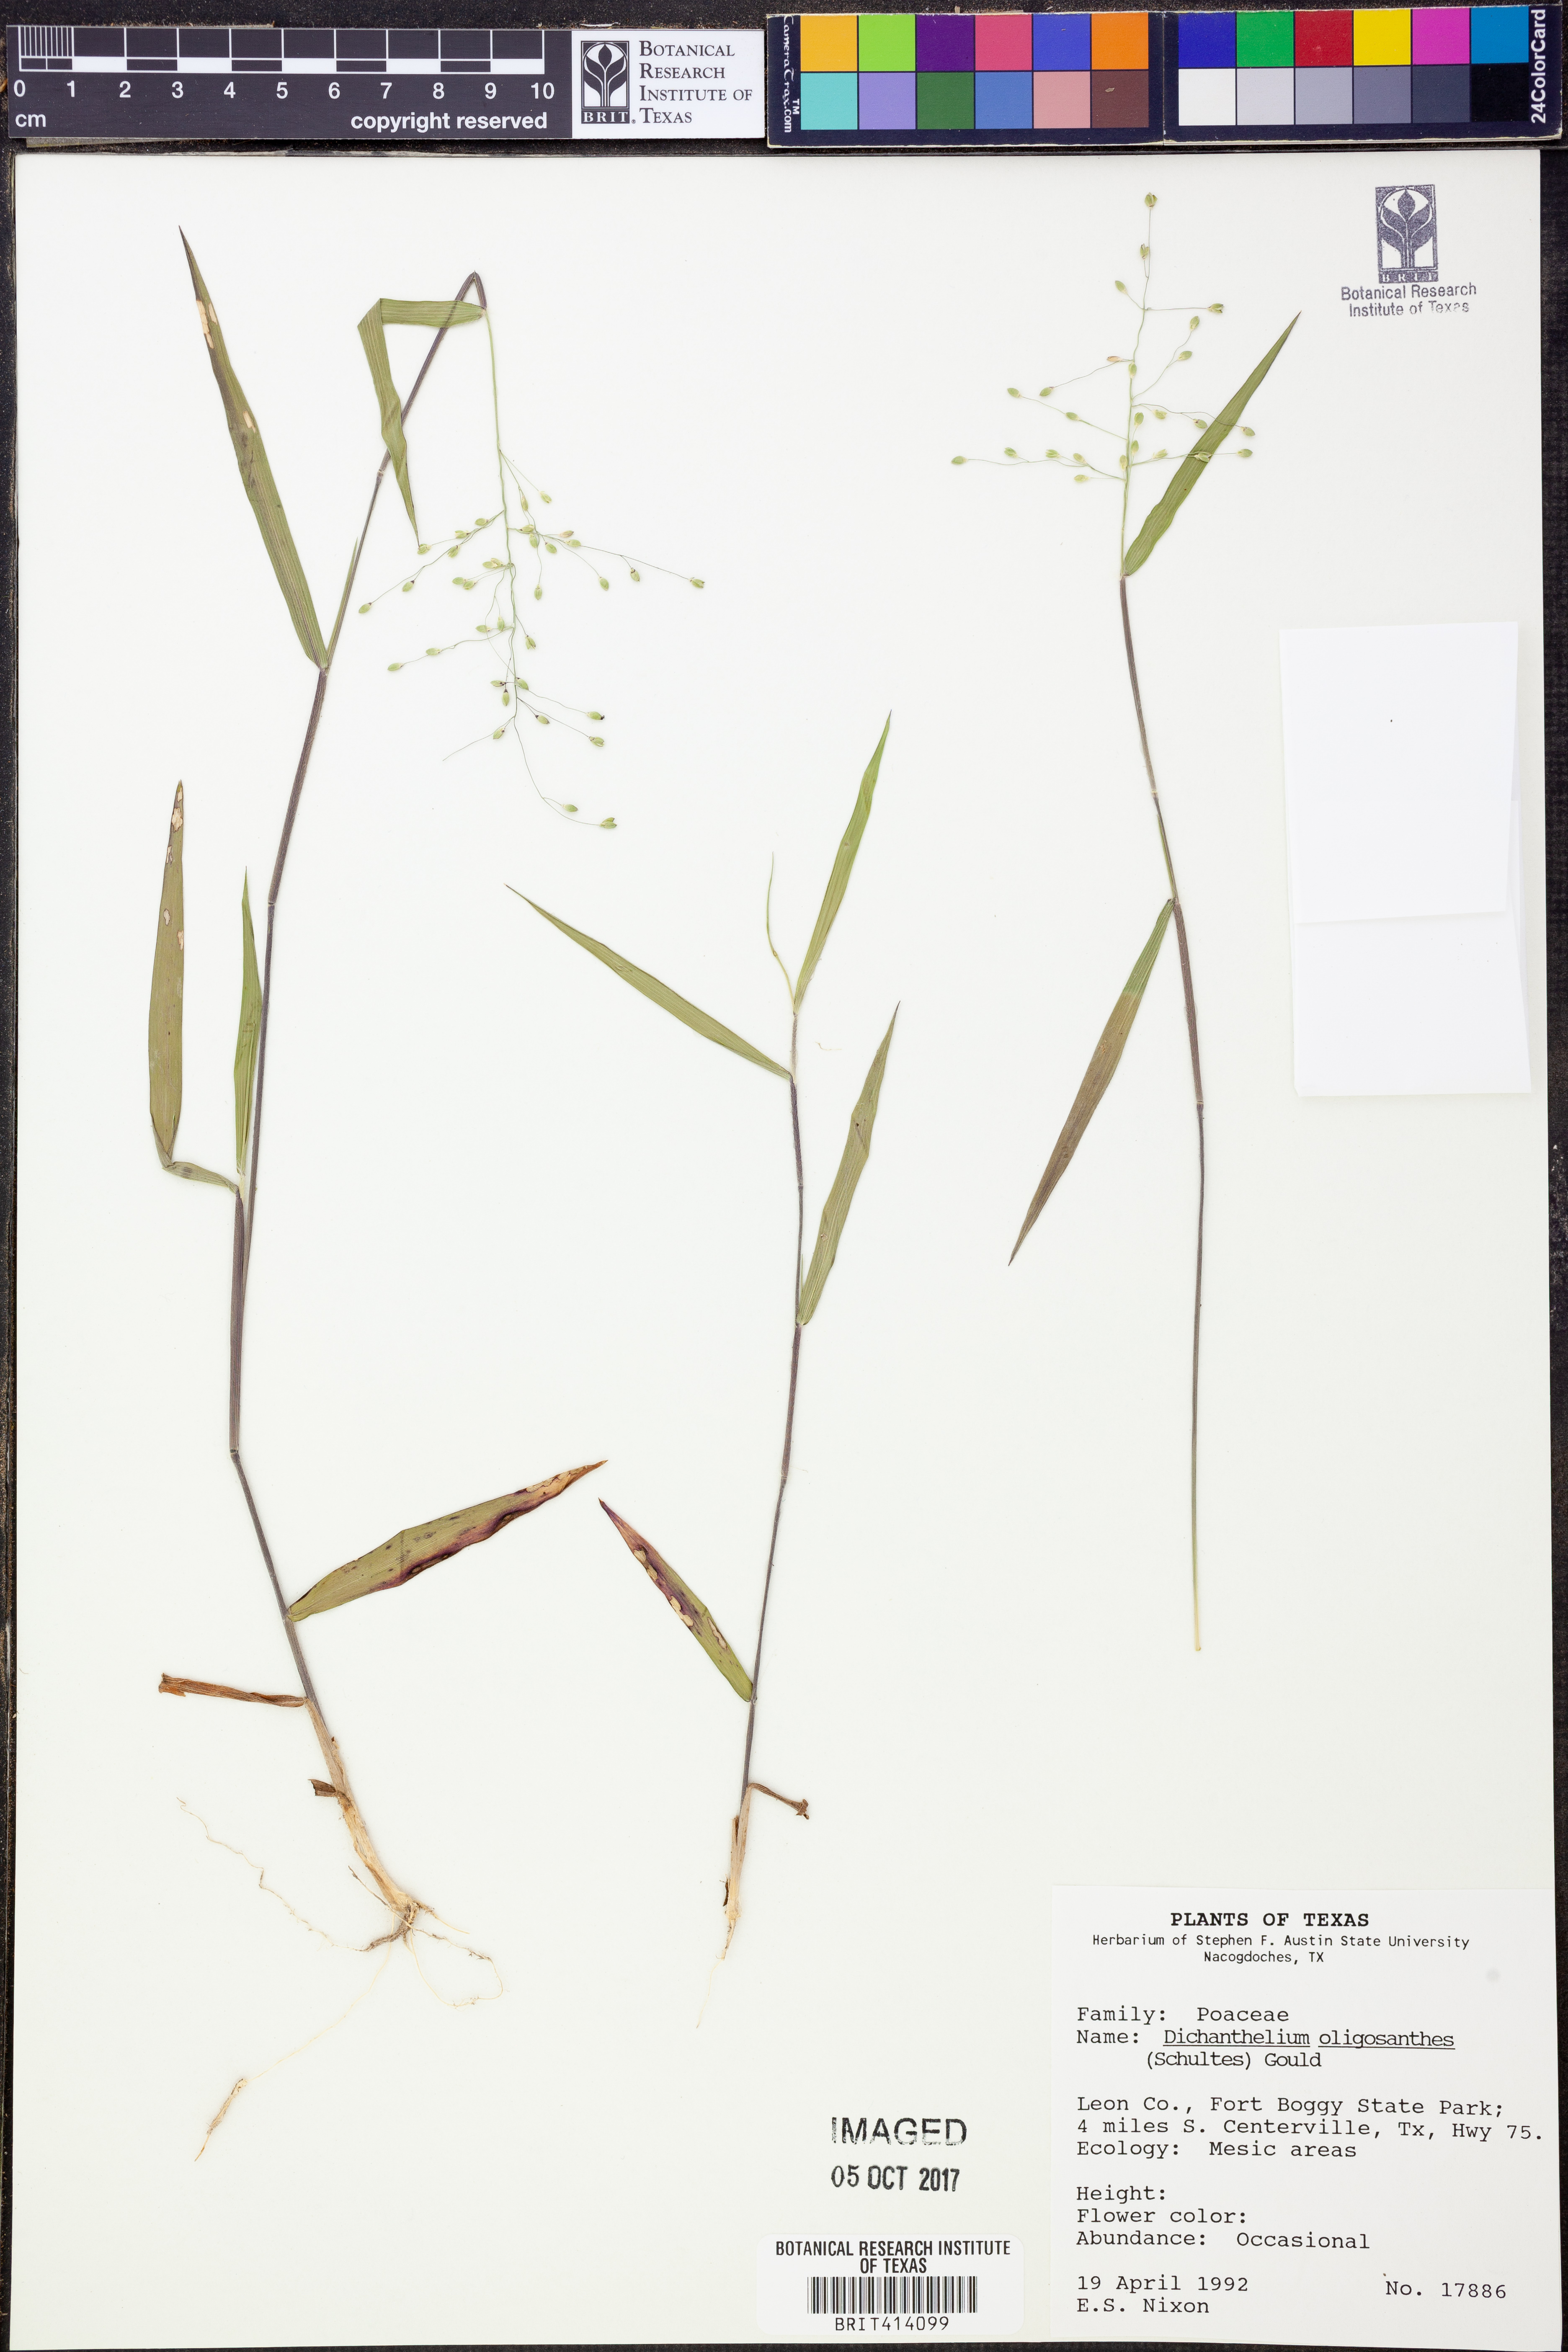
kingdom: Plantae
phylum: Tracheophyta
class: Liliopsida
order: Poales
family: Poaceae
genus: Dichanthelium
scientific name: Dichanthelium oligosanthes
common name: Few-anther obscuregrass
